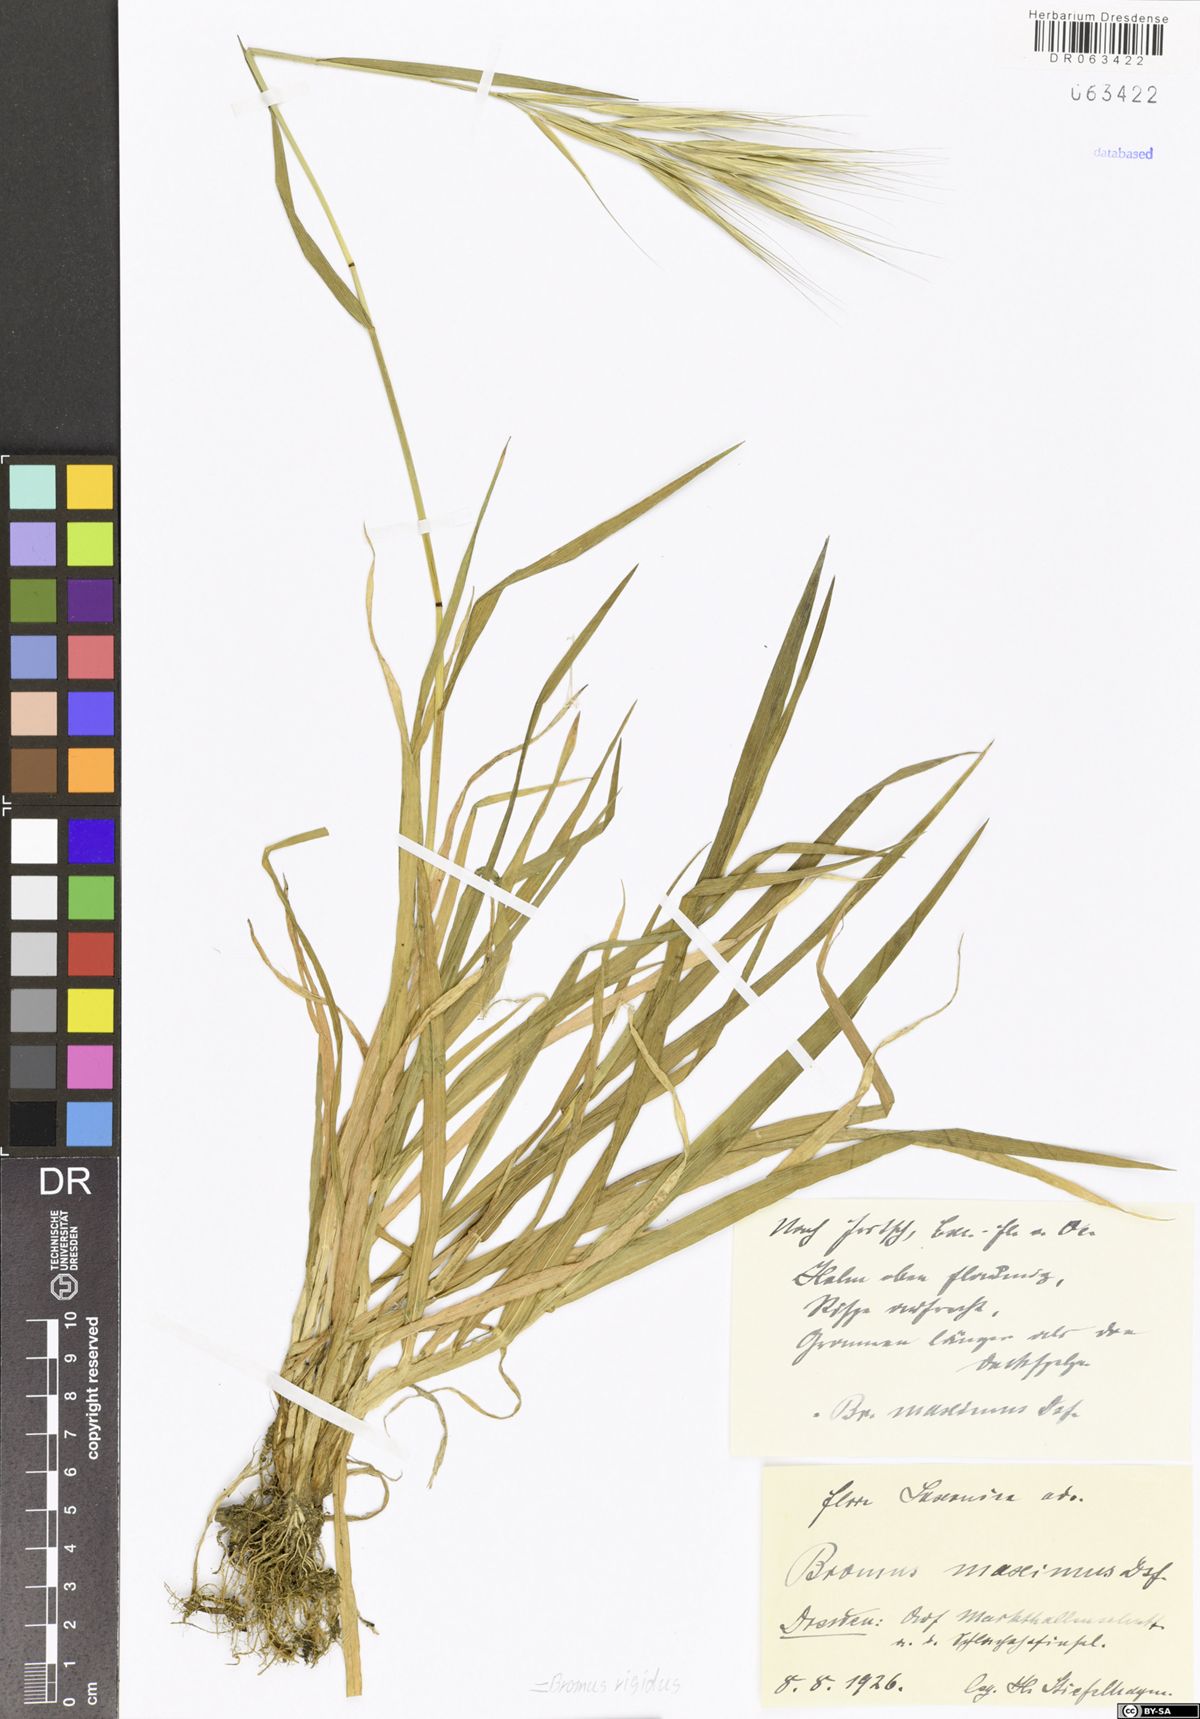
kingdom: Plantae
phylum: Tracheophyta
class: Liliopsida
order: Poales
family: Poaceae
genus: Bromus
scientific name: Bromus rigidus
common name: Ripgut brome
